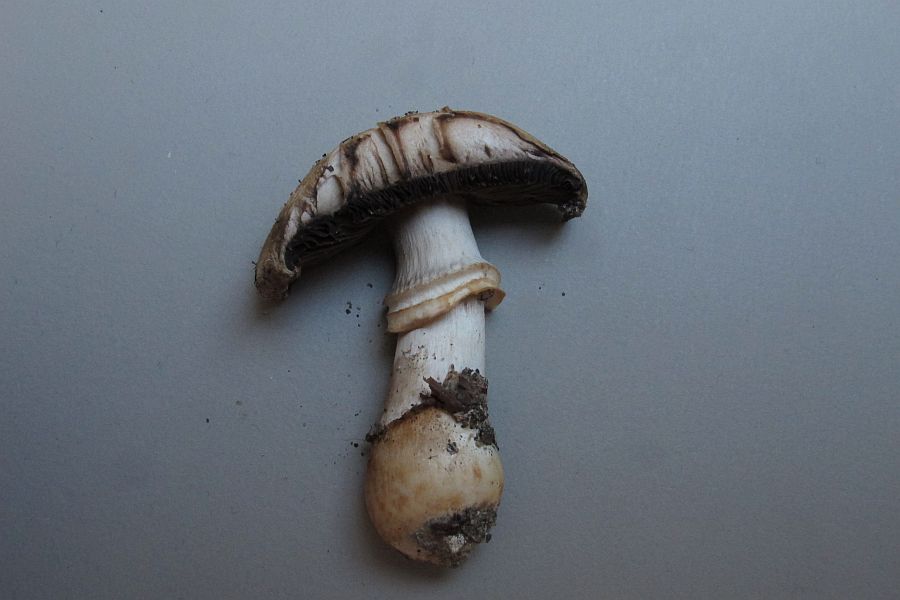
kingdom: Fungi
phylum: Basidiomycota
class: Agaricomycetes
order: Agaricales
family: Agaricaceae
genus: Agaricus
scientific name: Agaricus subfloccosus
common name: randskællet champignon
